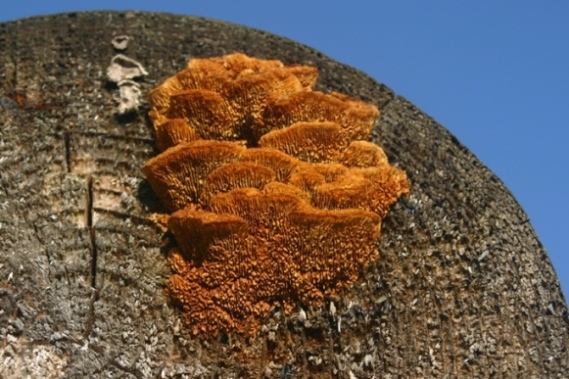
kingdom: Fungi
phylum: Basidiomycota
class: Agaricomycetes
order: Gloeophyllales
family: Gloeophyllaceae
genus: Gloeophyllum
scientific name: Gloeophyllum sepiarium
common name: fyrre-korkhat
